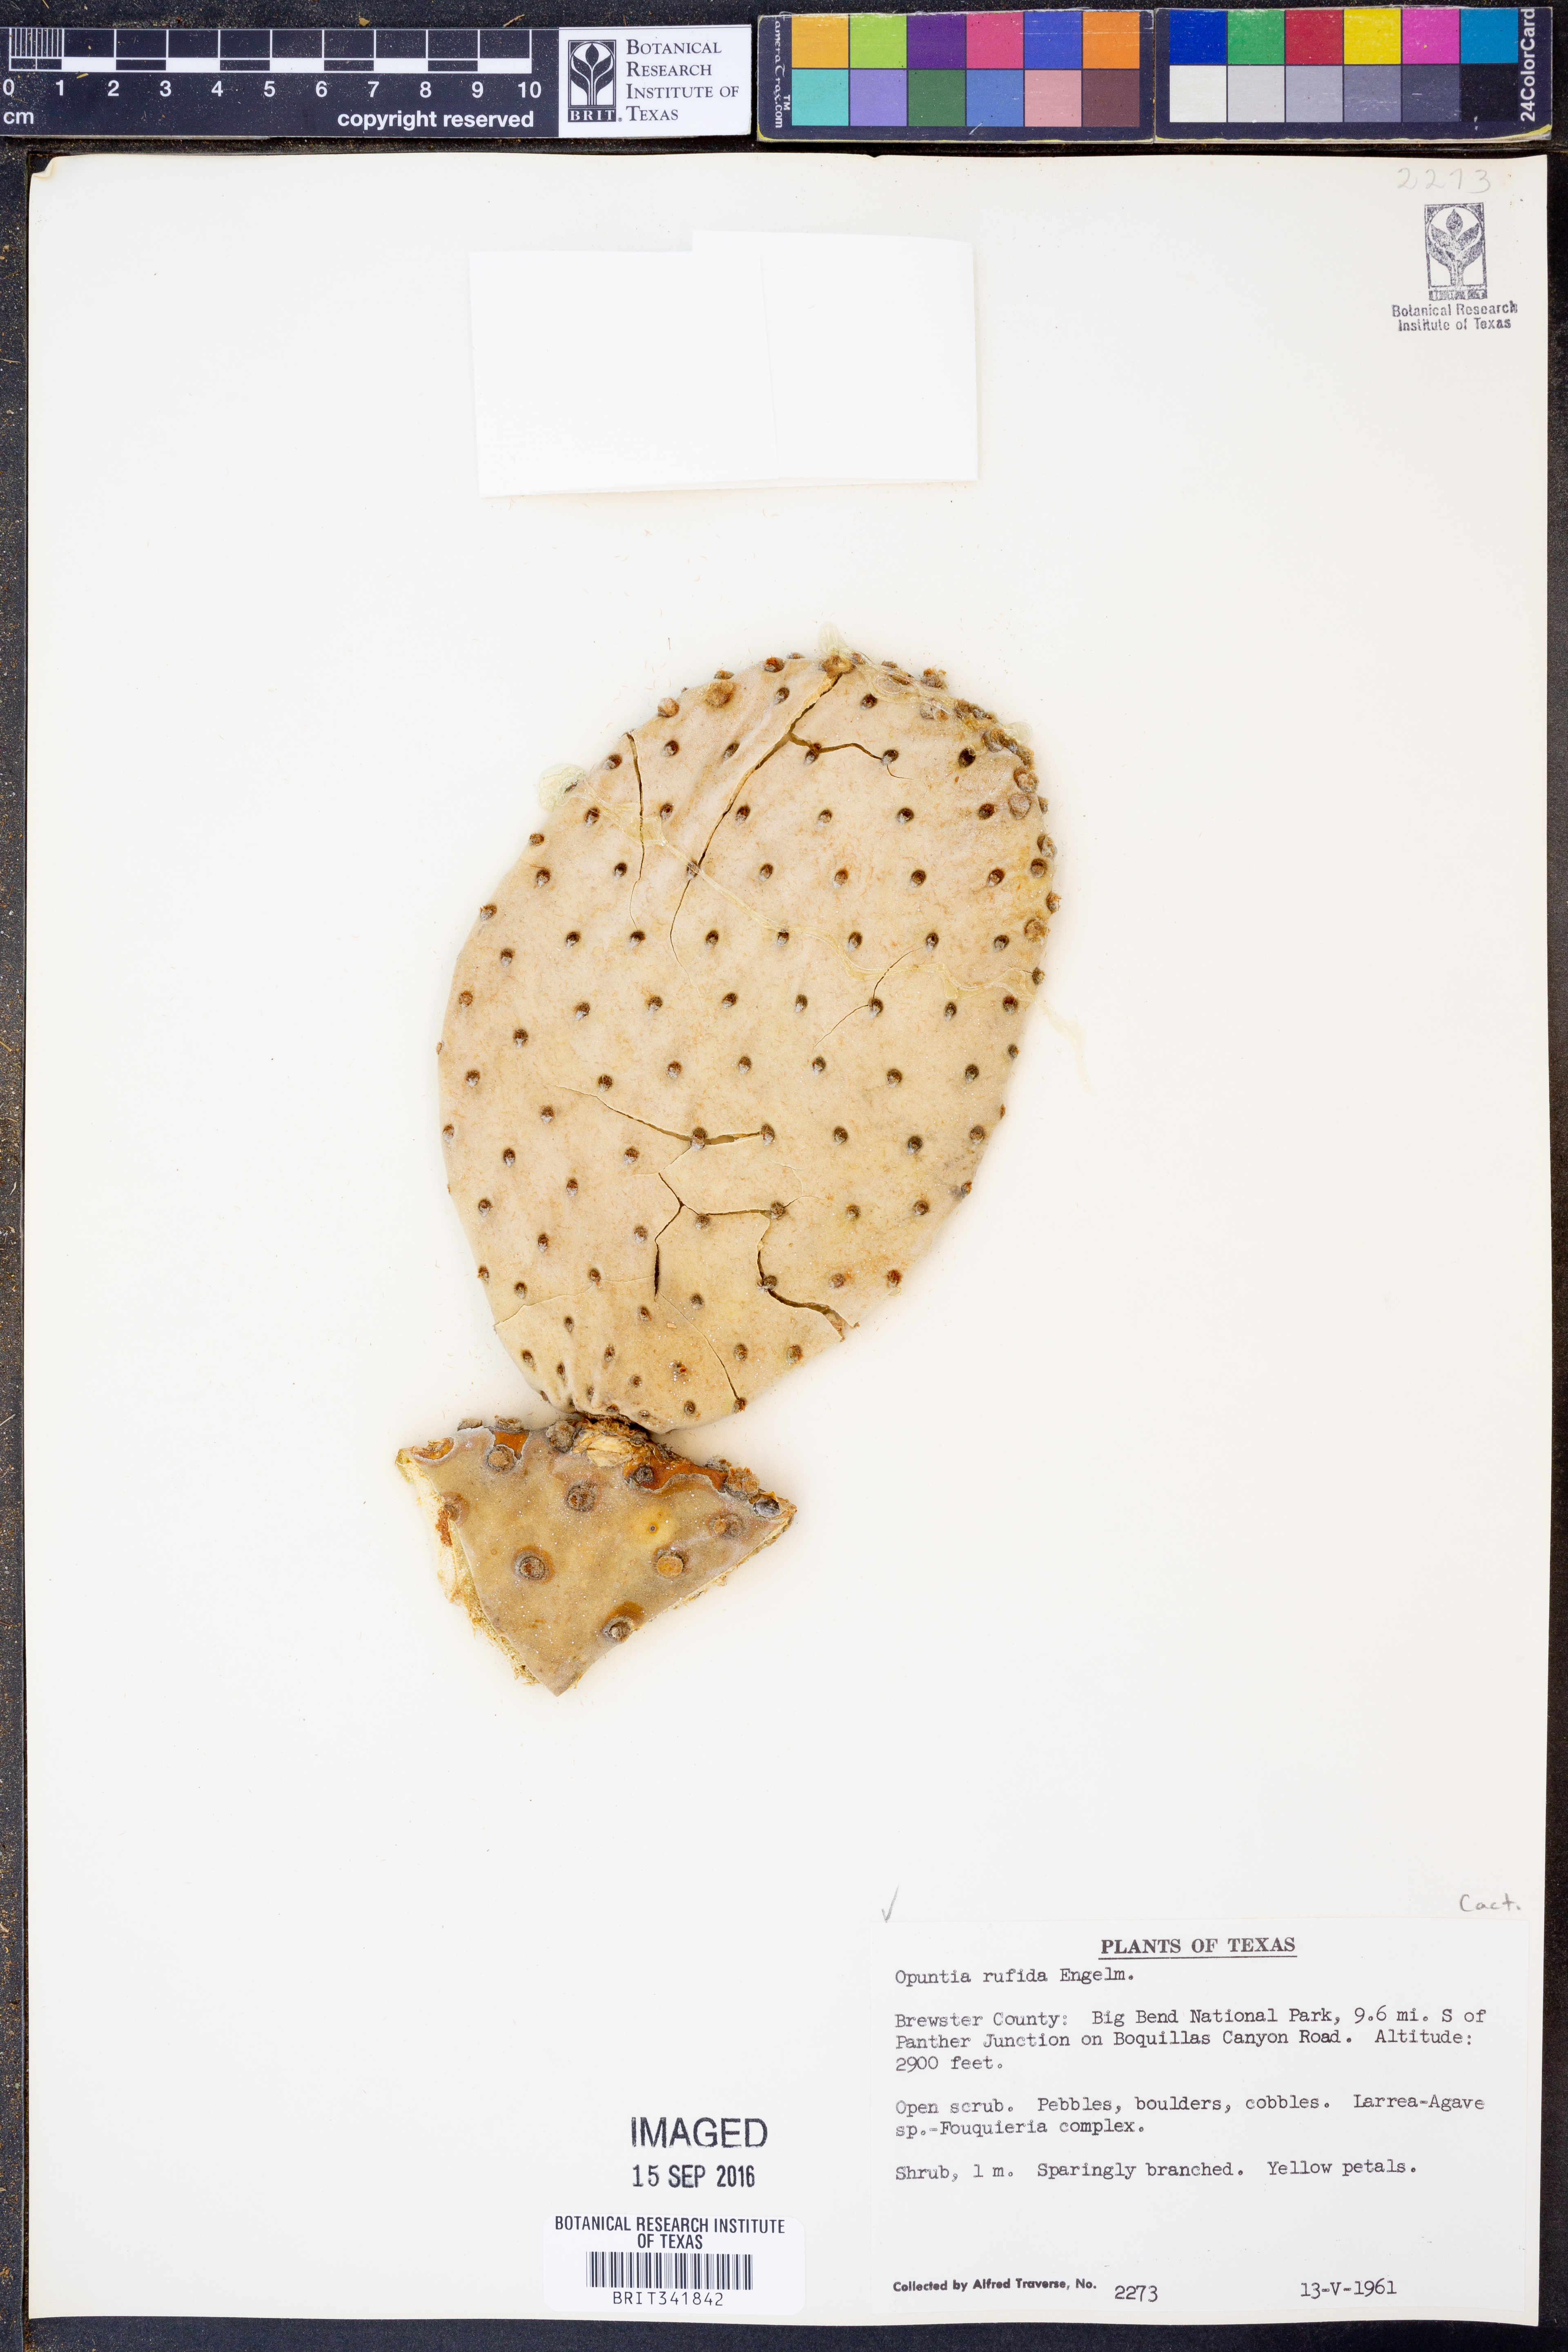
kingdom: Plantae
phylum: Tracheophyta
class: Magnoliopsida
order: Caryophyllales
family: Cactaceae
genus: Opuntia
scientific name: Opuntia rufida
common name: Blind pricklypear
